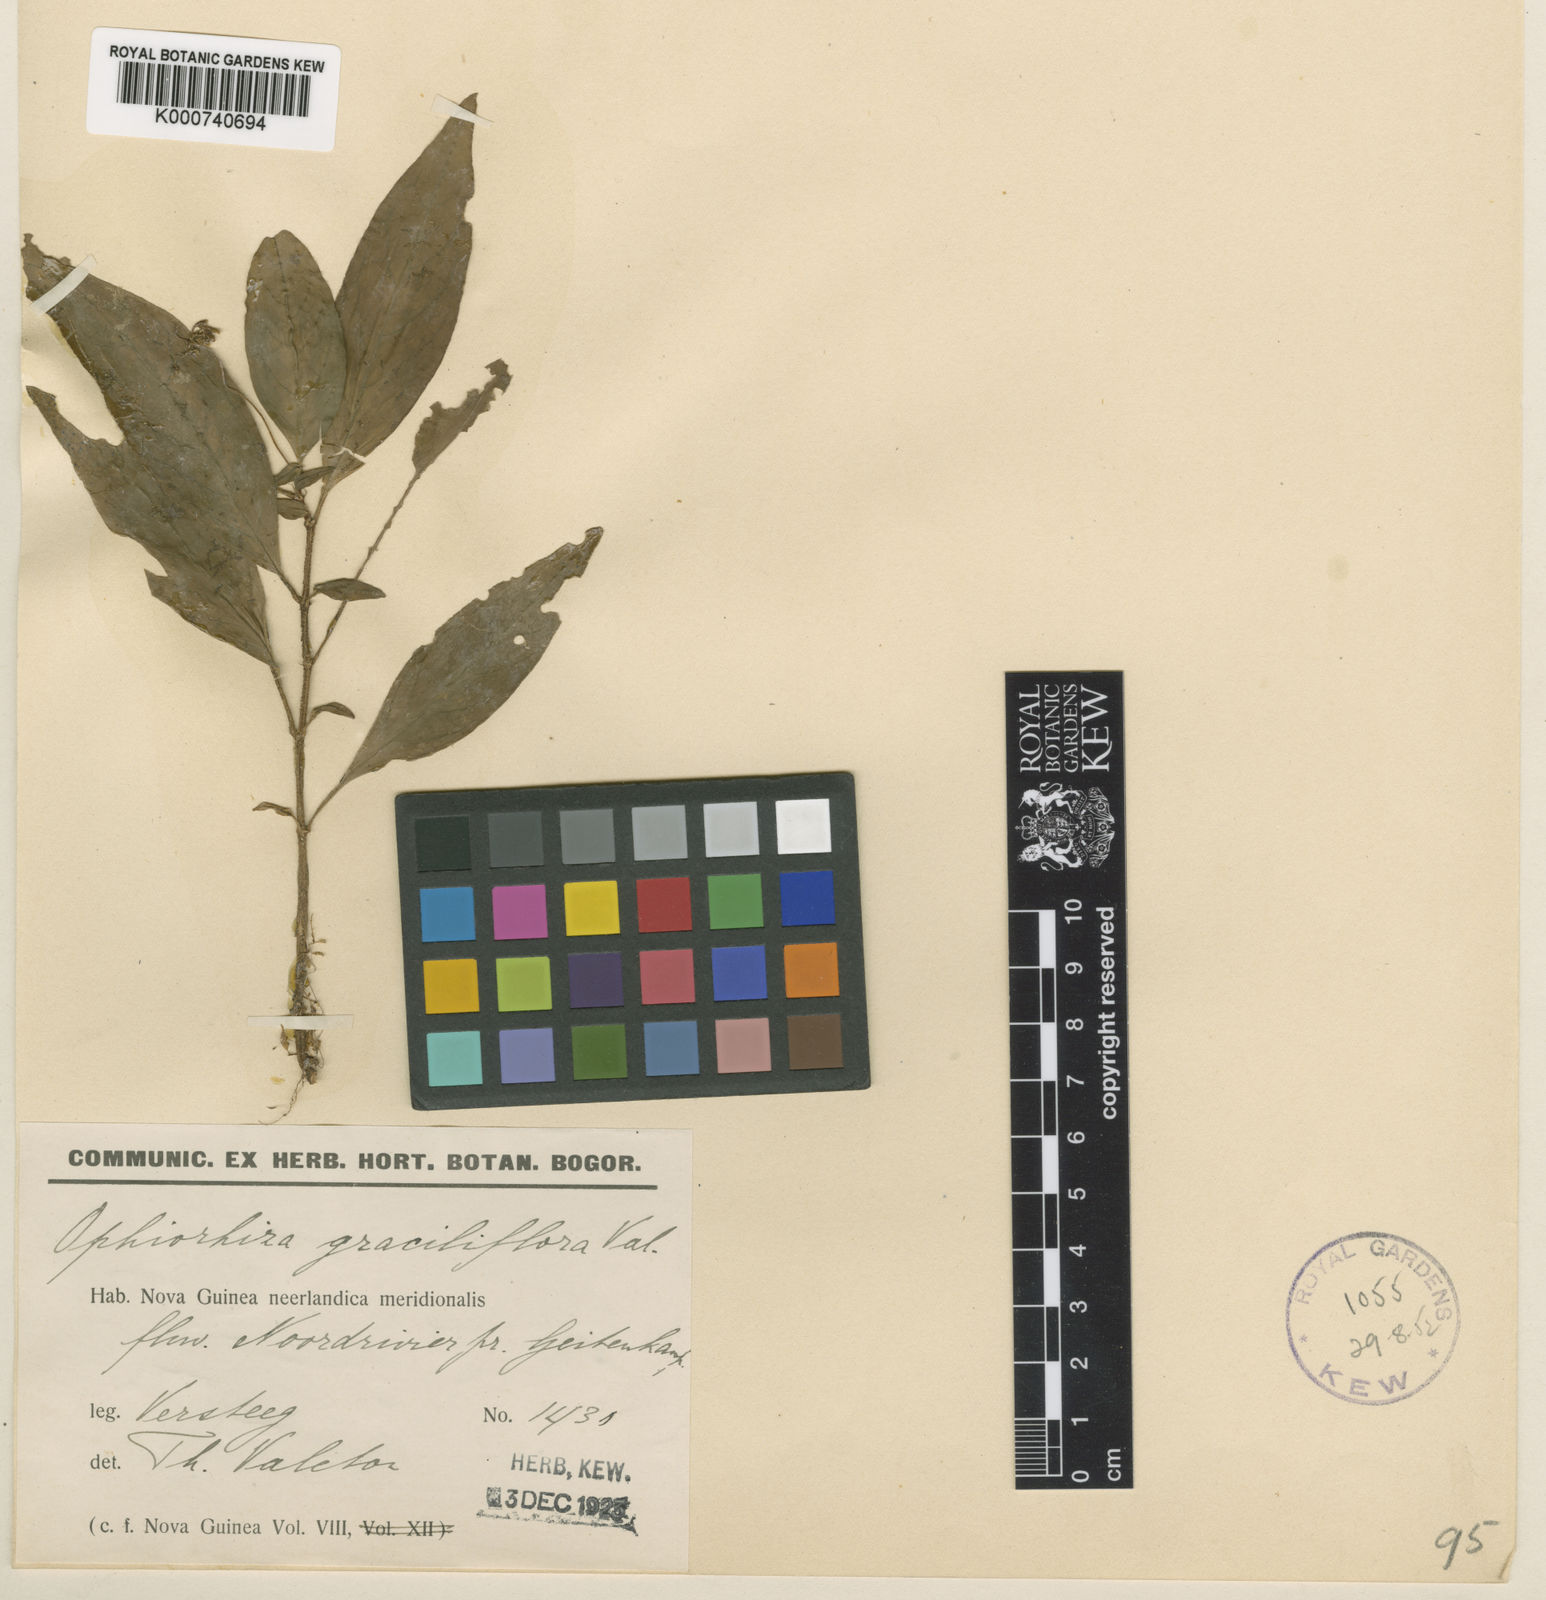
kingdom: Plantae
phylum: Tracheophyta
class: Magnoliopsida
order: Gentianales
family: Rubiaceae
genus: Ophiorrhiza
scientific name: Ophiorrhiza graciliflora
